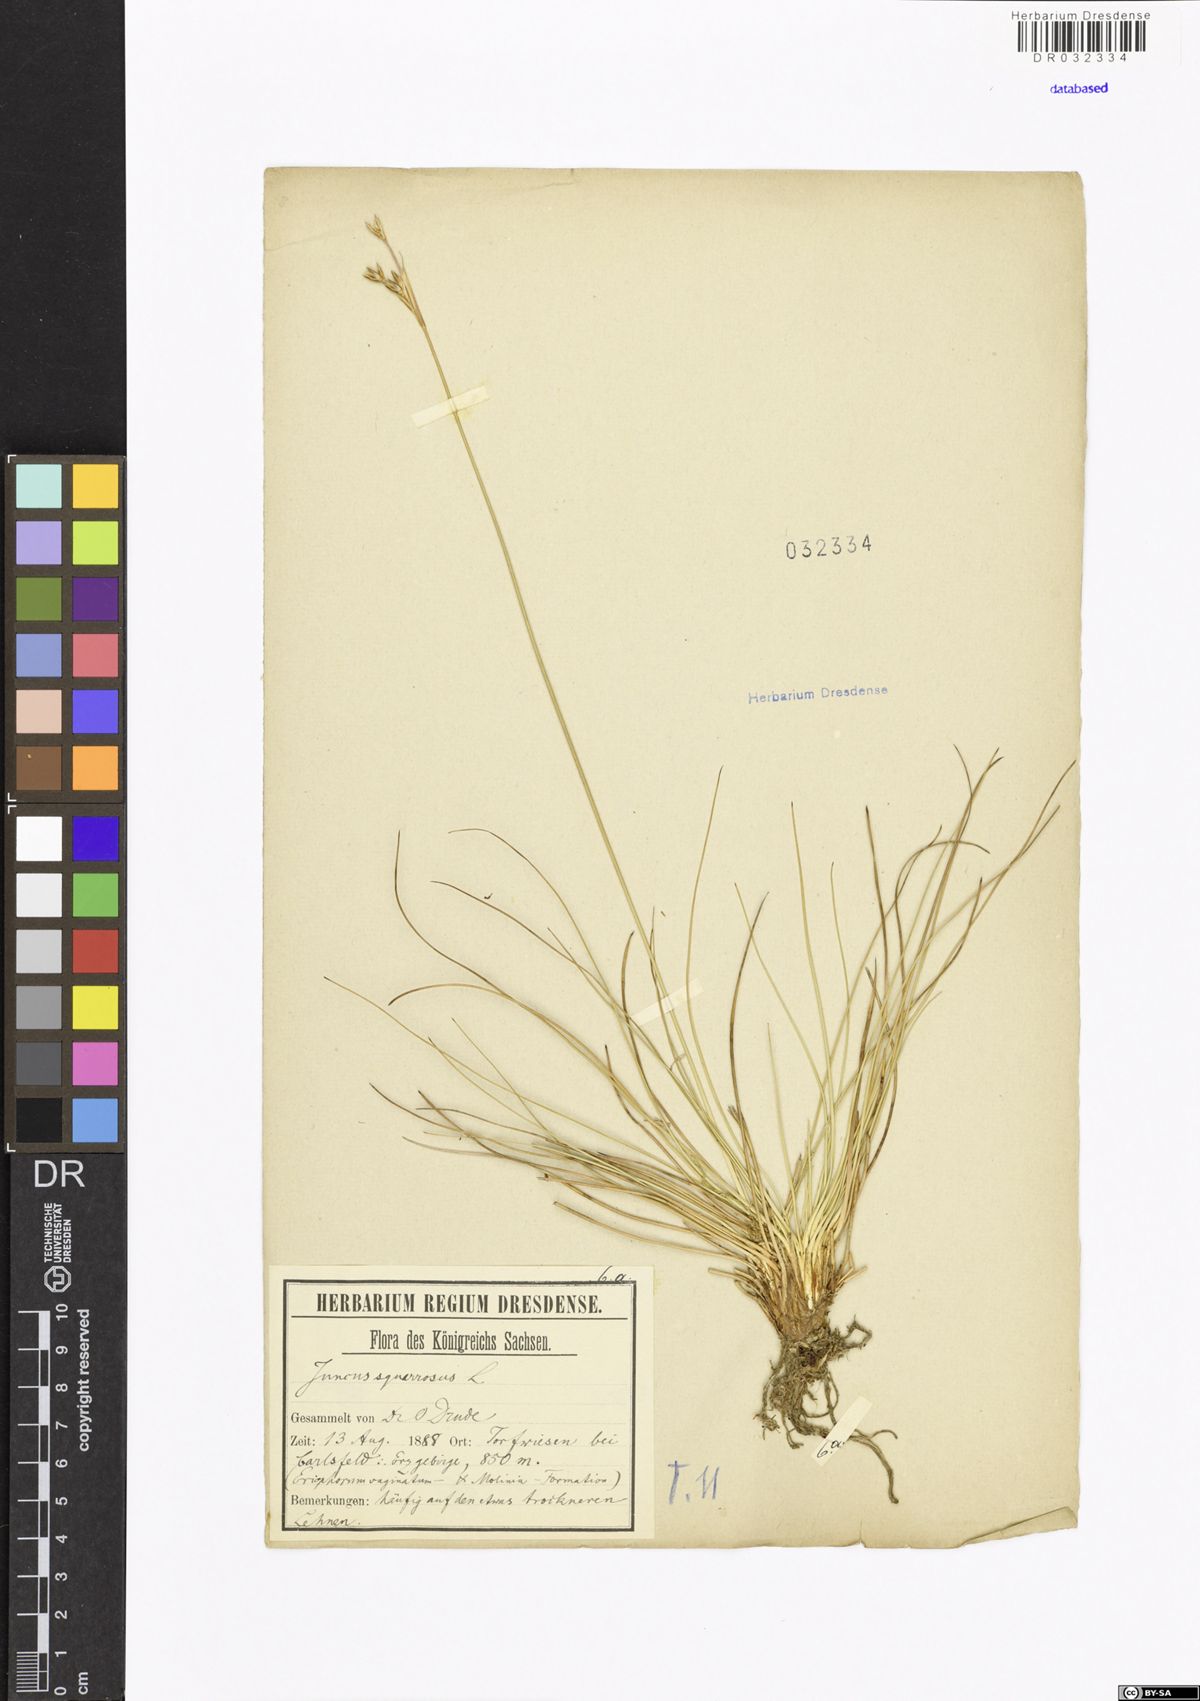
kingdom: Plantae
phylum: Tracheophyta
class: Liliopsida
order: Poales
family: Juncaceae
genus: Juncus
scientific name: Juncus squarrosus
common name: Heath rush
